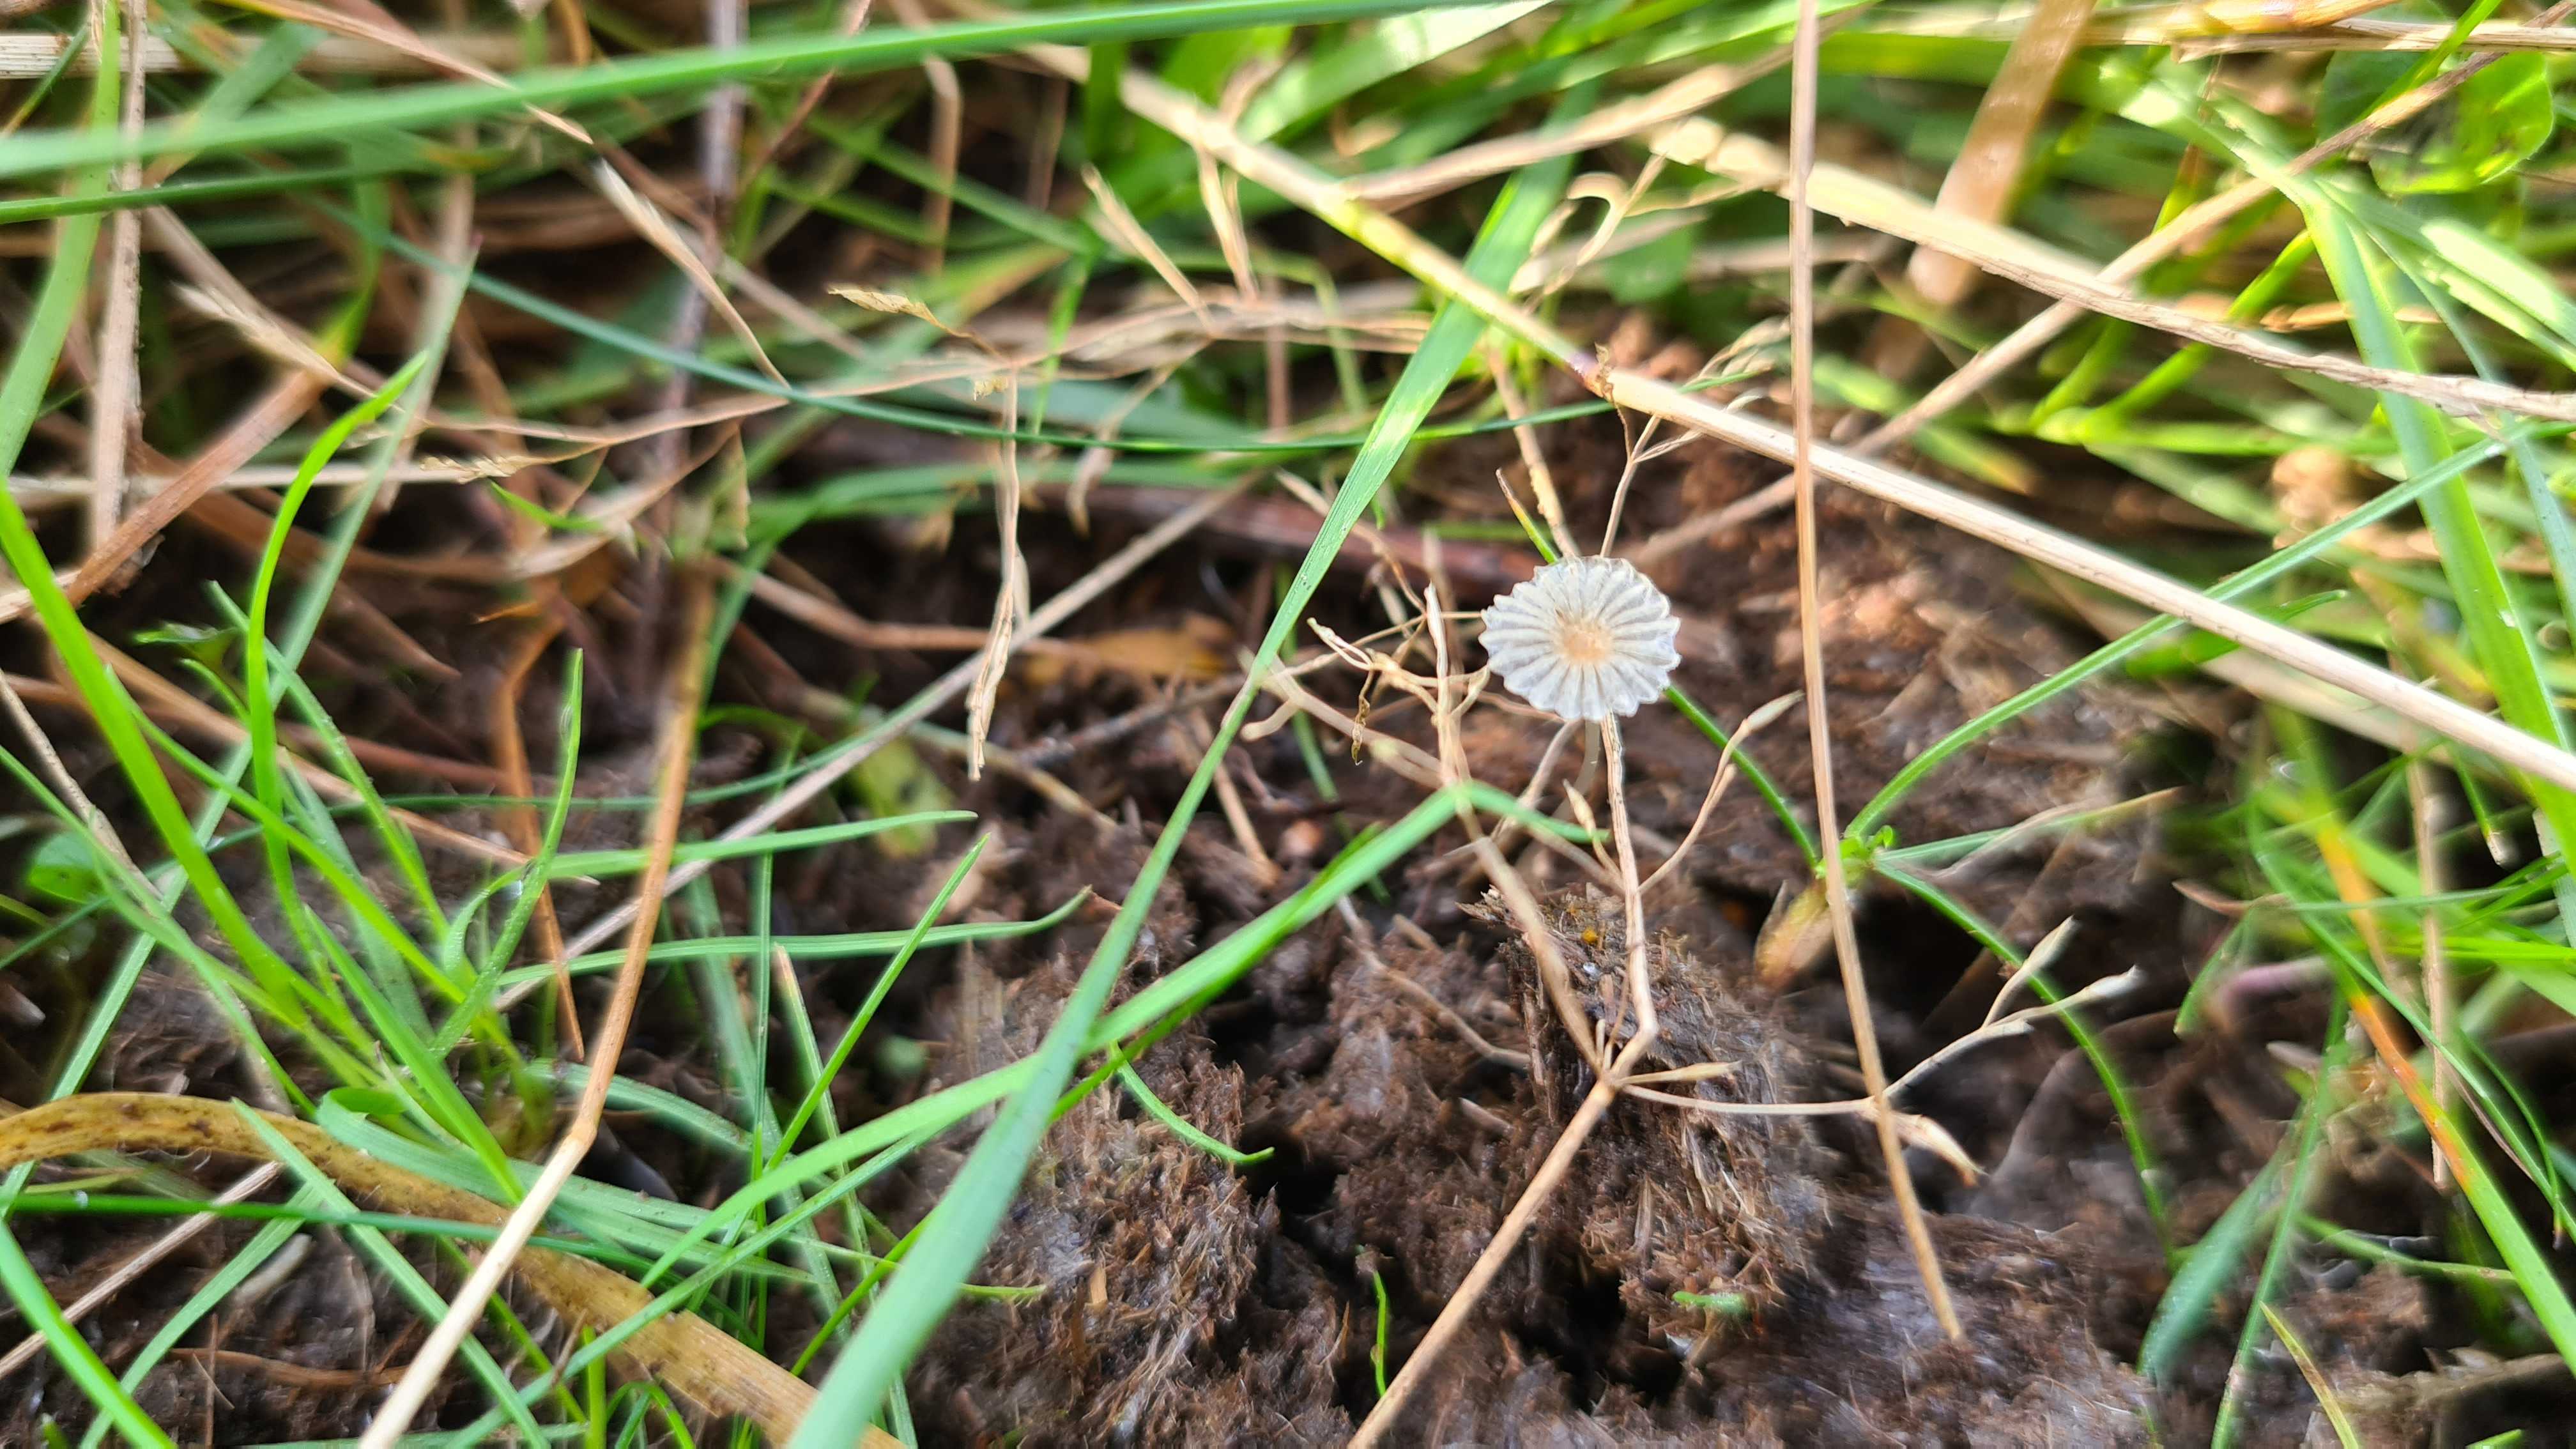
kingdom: Fungi
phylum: Basidiomycota
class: Agaricomycetes
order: Agaricales
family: Psathyrellaceae
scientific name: Psathyrellaceae
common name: mørkhatfamilien
